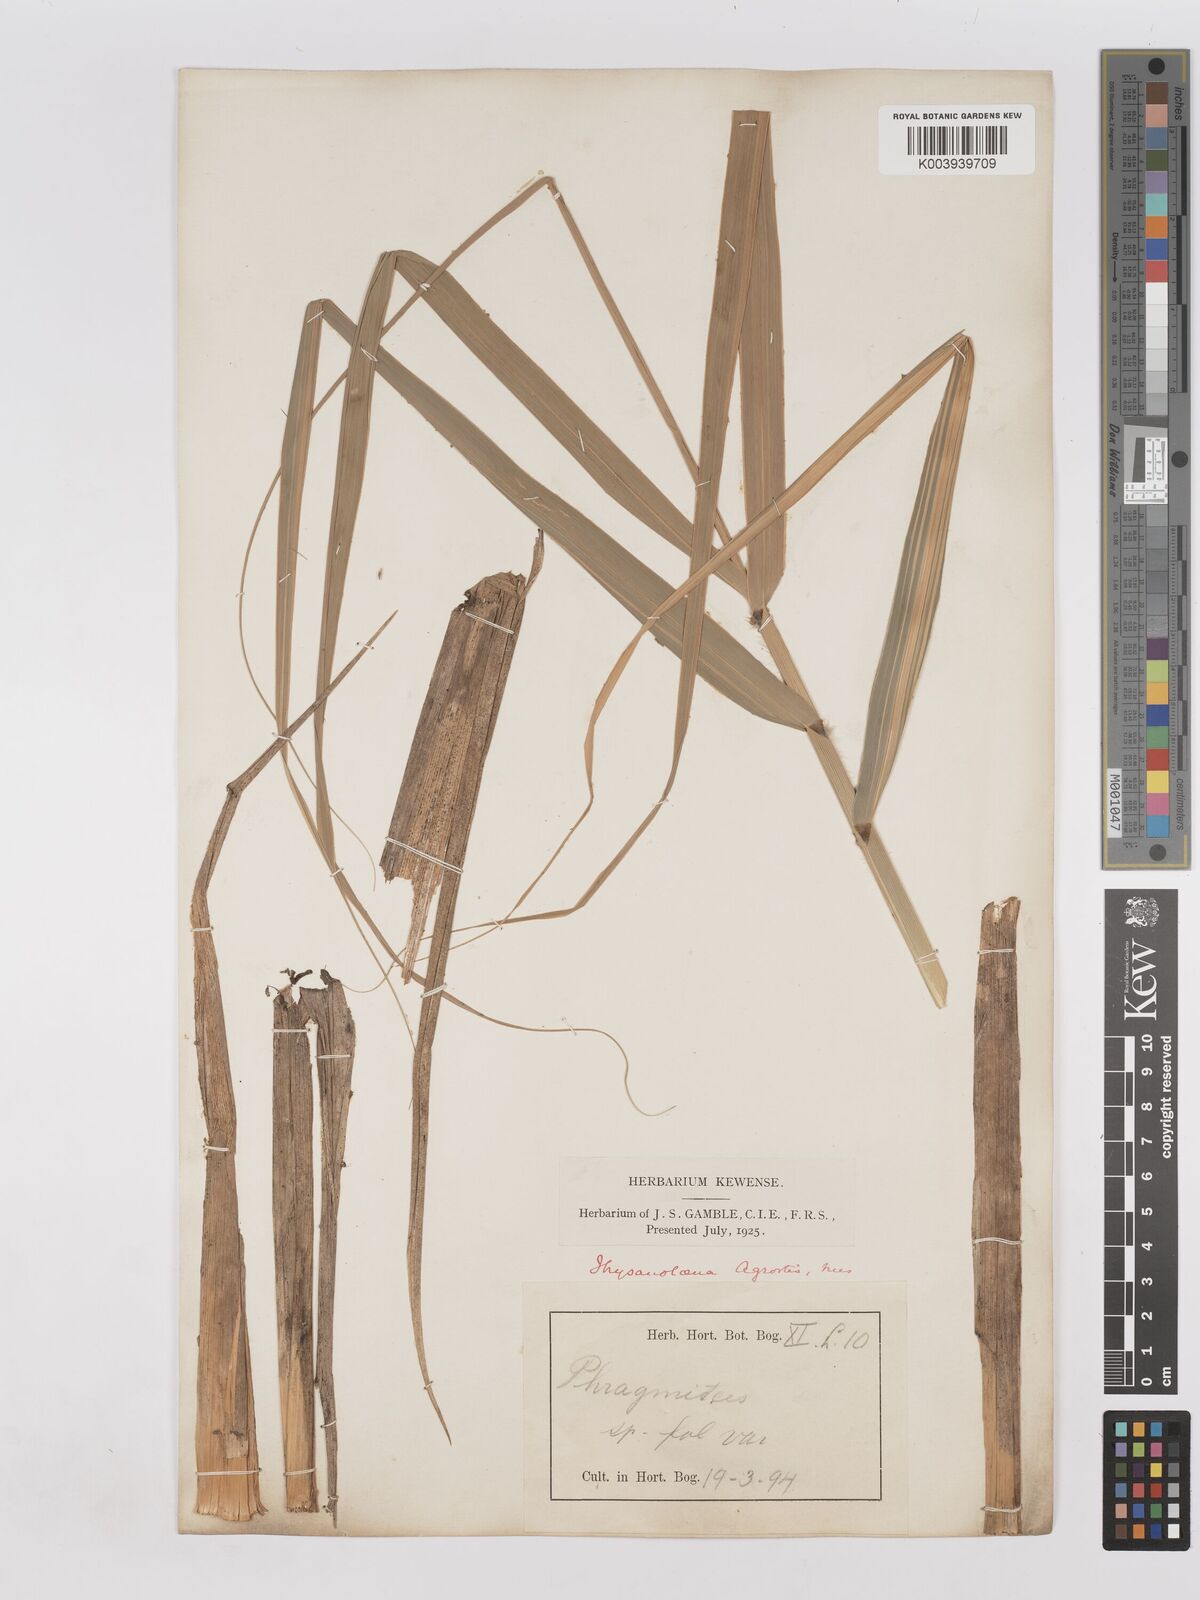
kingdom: Plantae
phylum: Tracheophyta
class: Liliopsida
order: Poales
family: Poaceae
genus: Phragmites
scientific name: Phragmites australis
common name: Common reed
